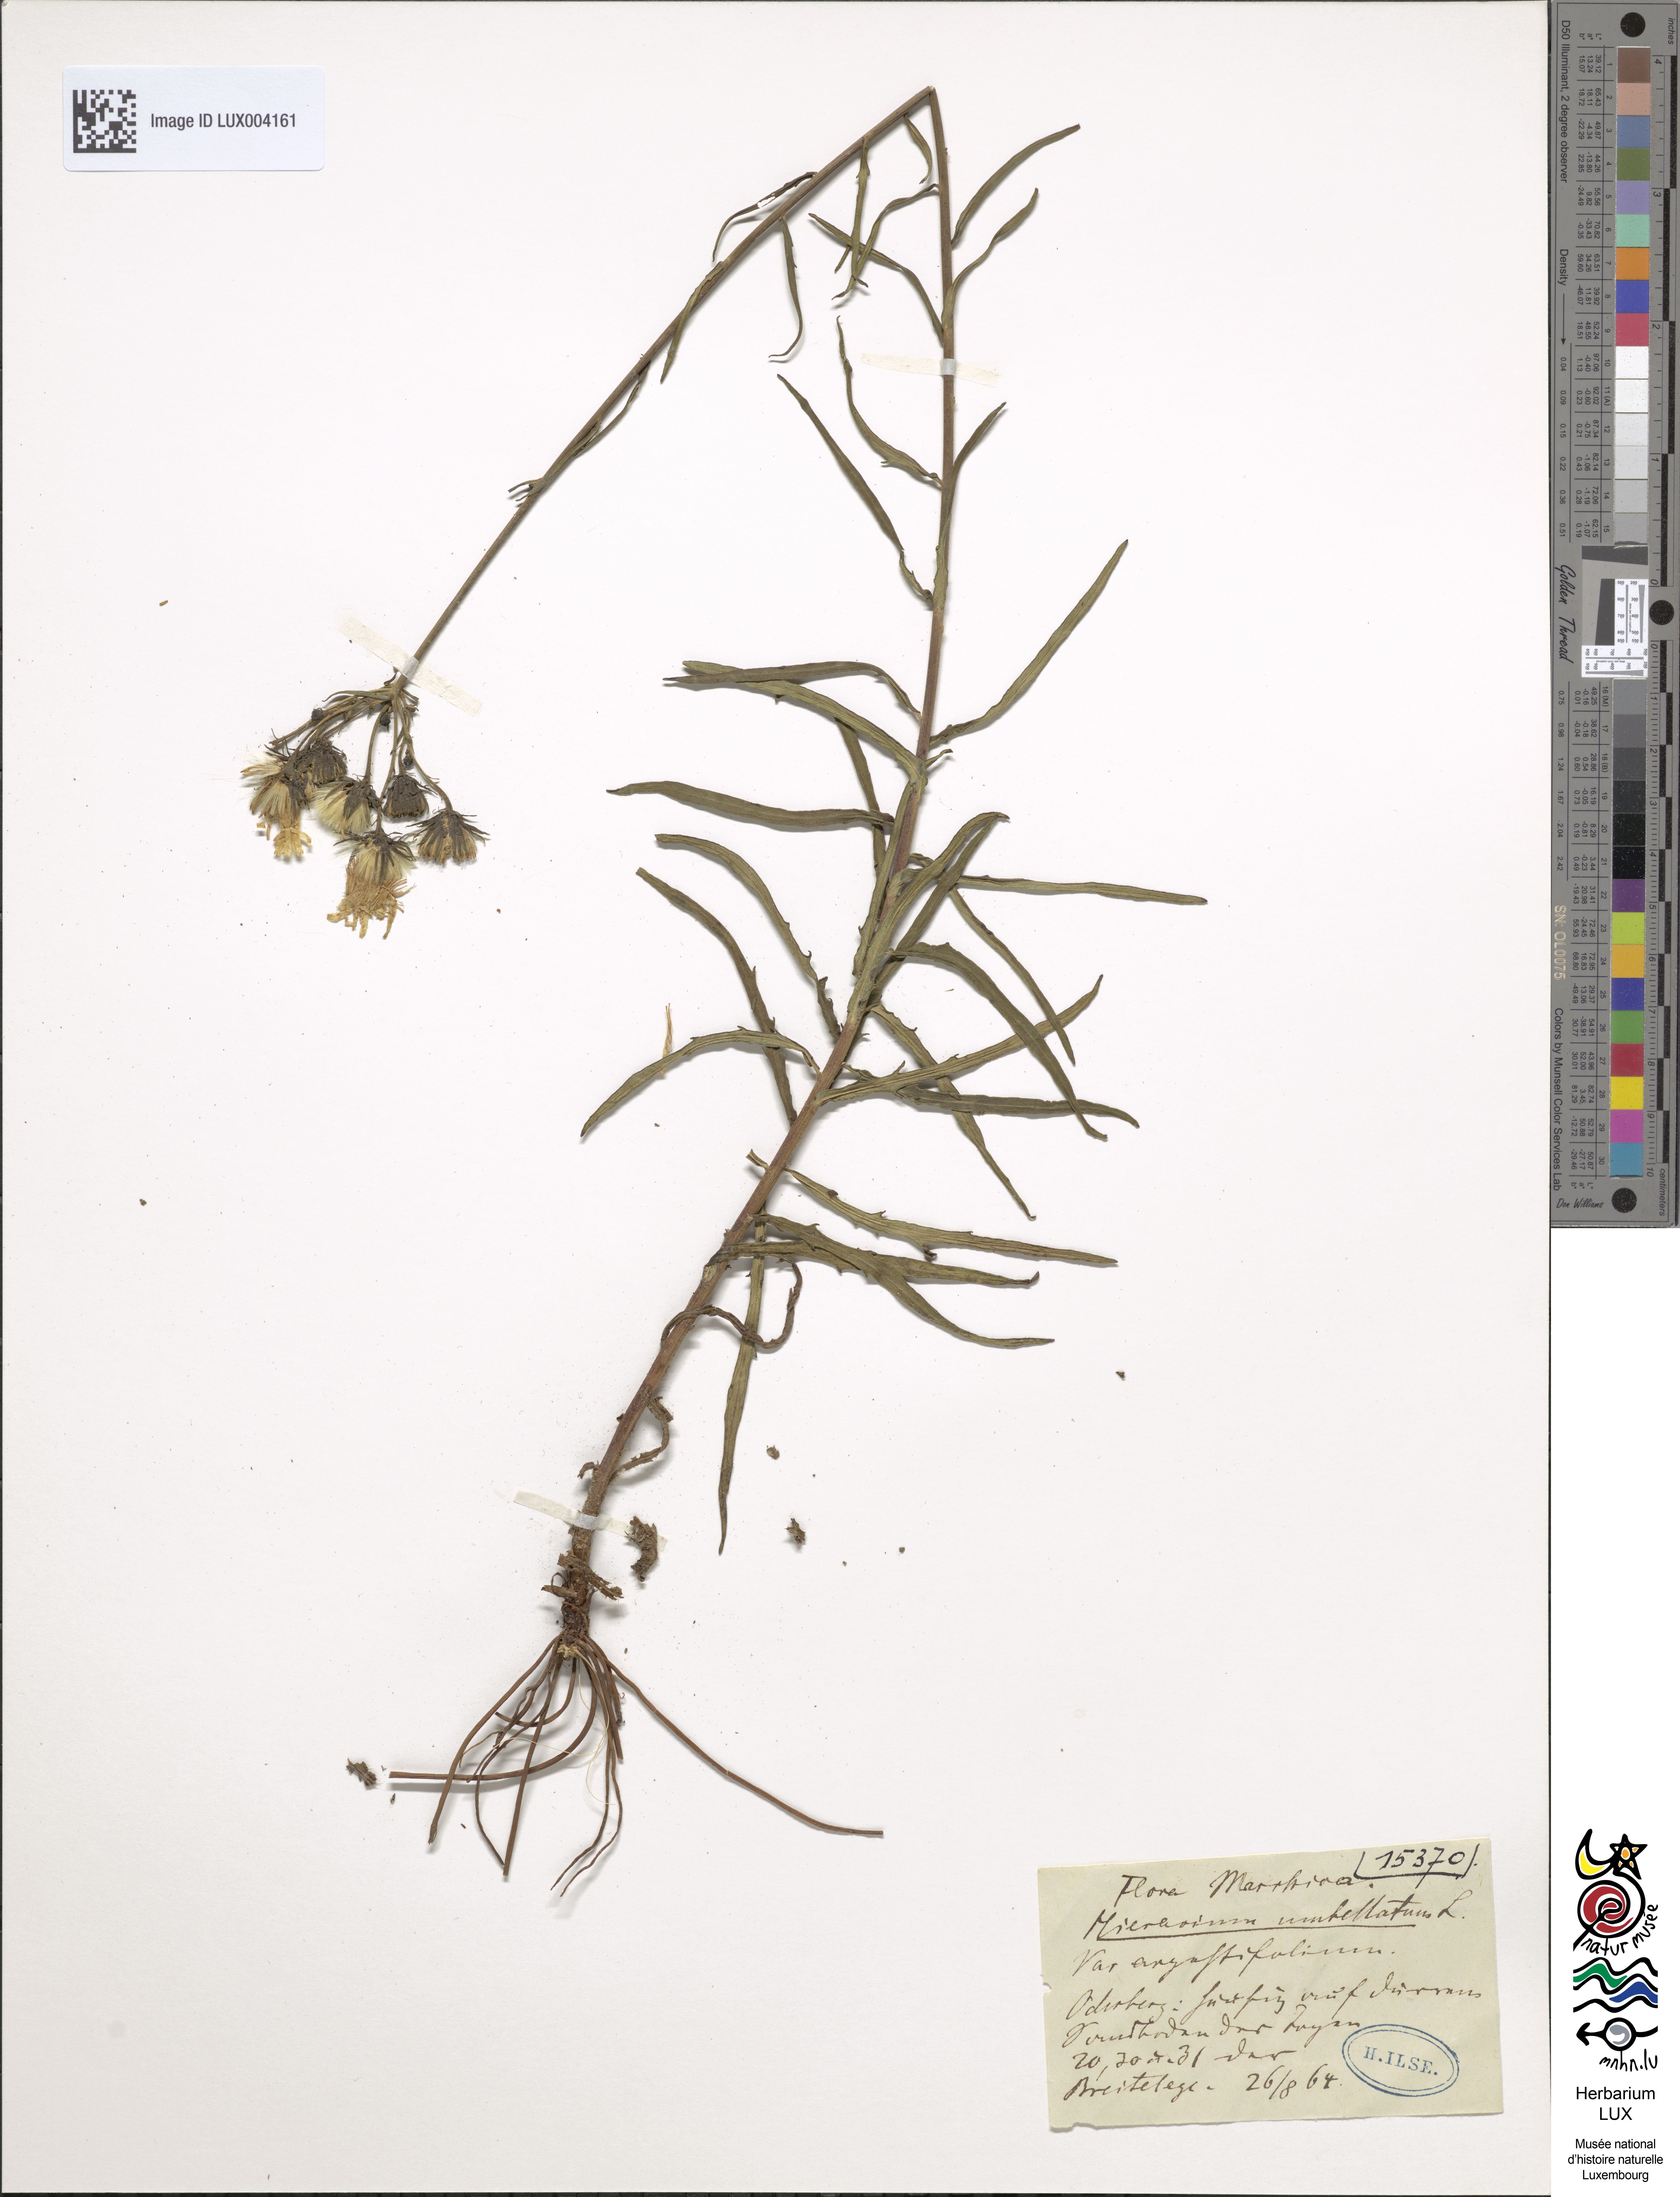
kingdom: Plantae
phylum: Tracheophyta
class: Magnoliopsida
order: Asterales
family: Asteraceae
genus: Hieracium
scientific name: Hieracium umbellatum
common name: Northern hawkweed
